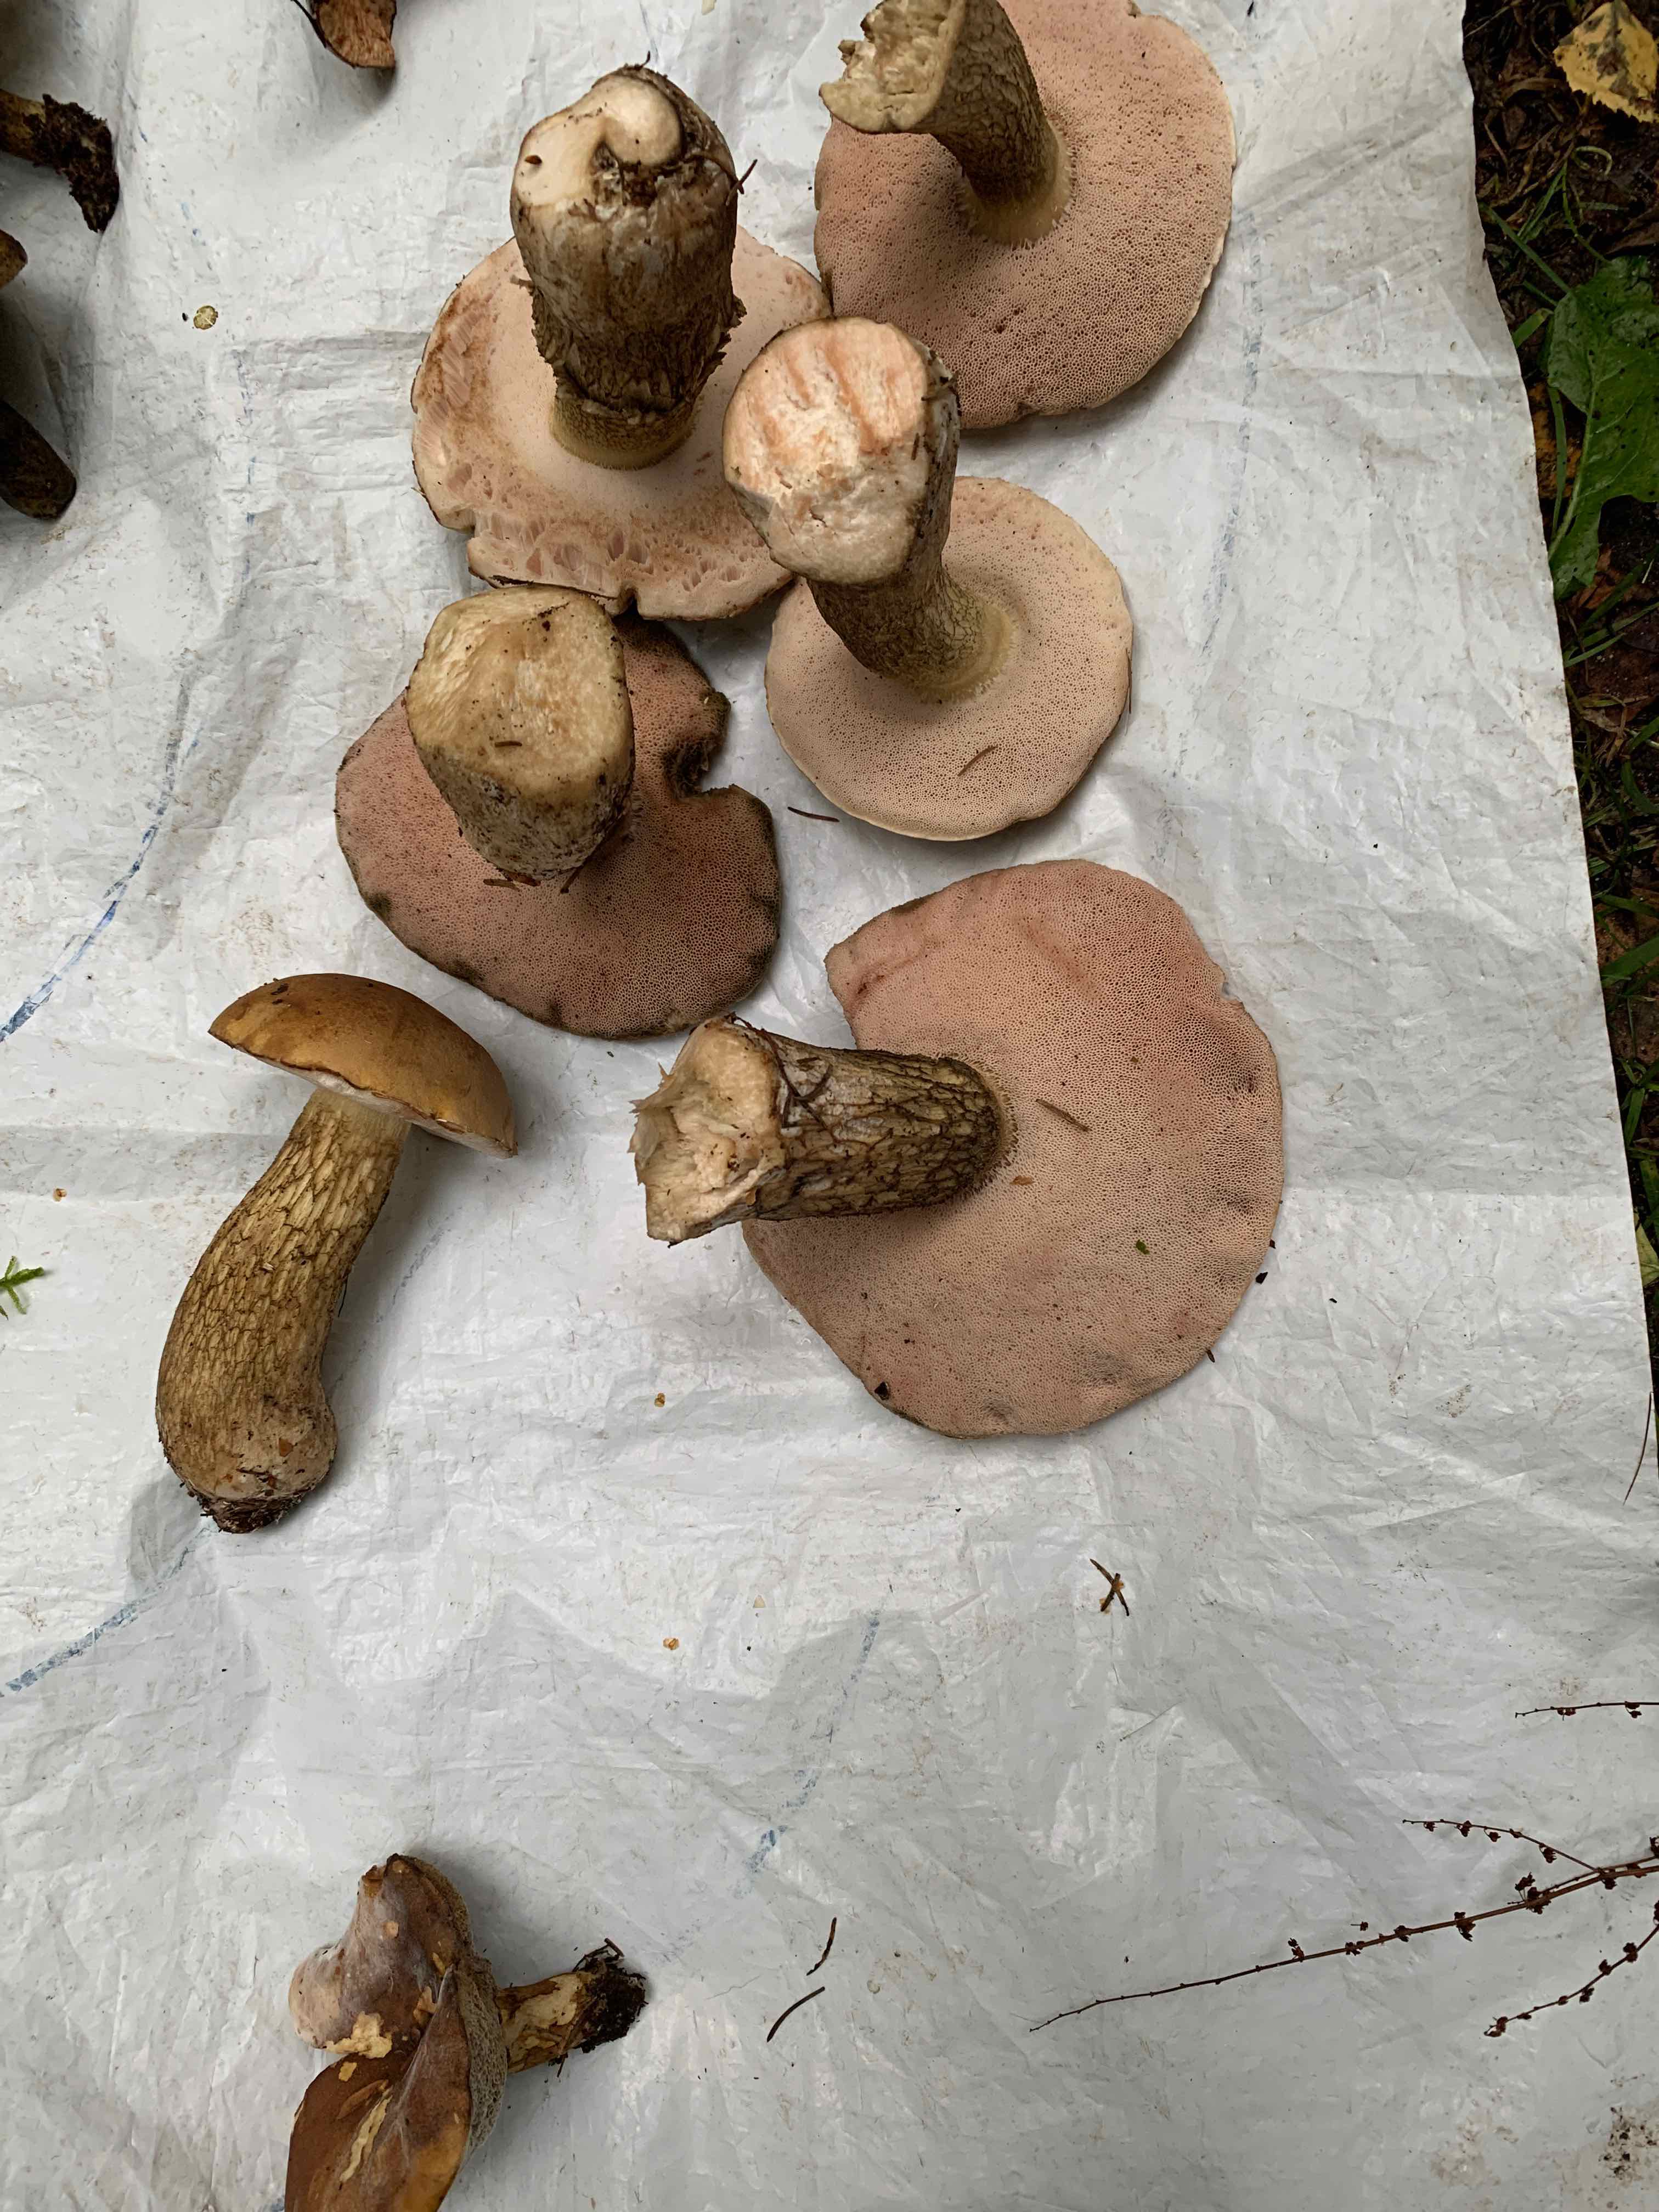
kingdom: Fungi
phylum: Basidiomycota
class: Agaricomycetes
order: Boletales
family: Boletaceae
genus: Tylopilus
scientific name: Tylopilus felleus
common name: galderørhat
